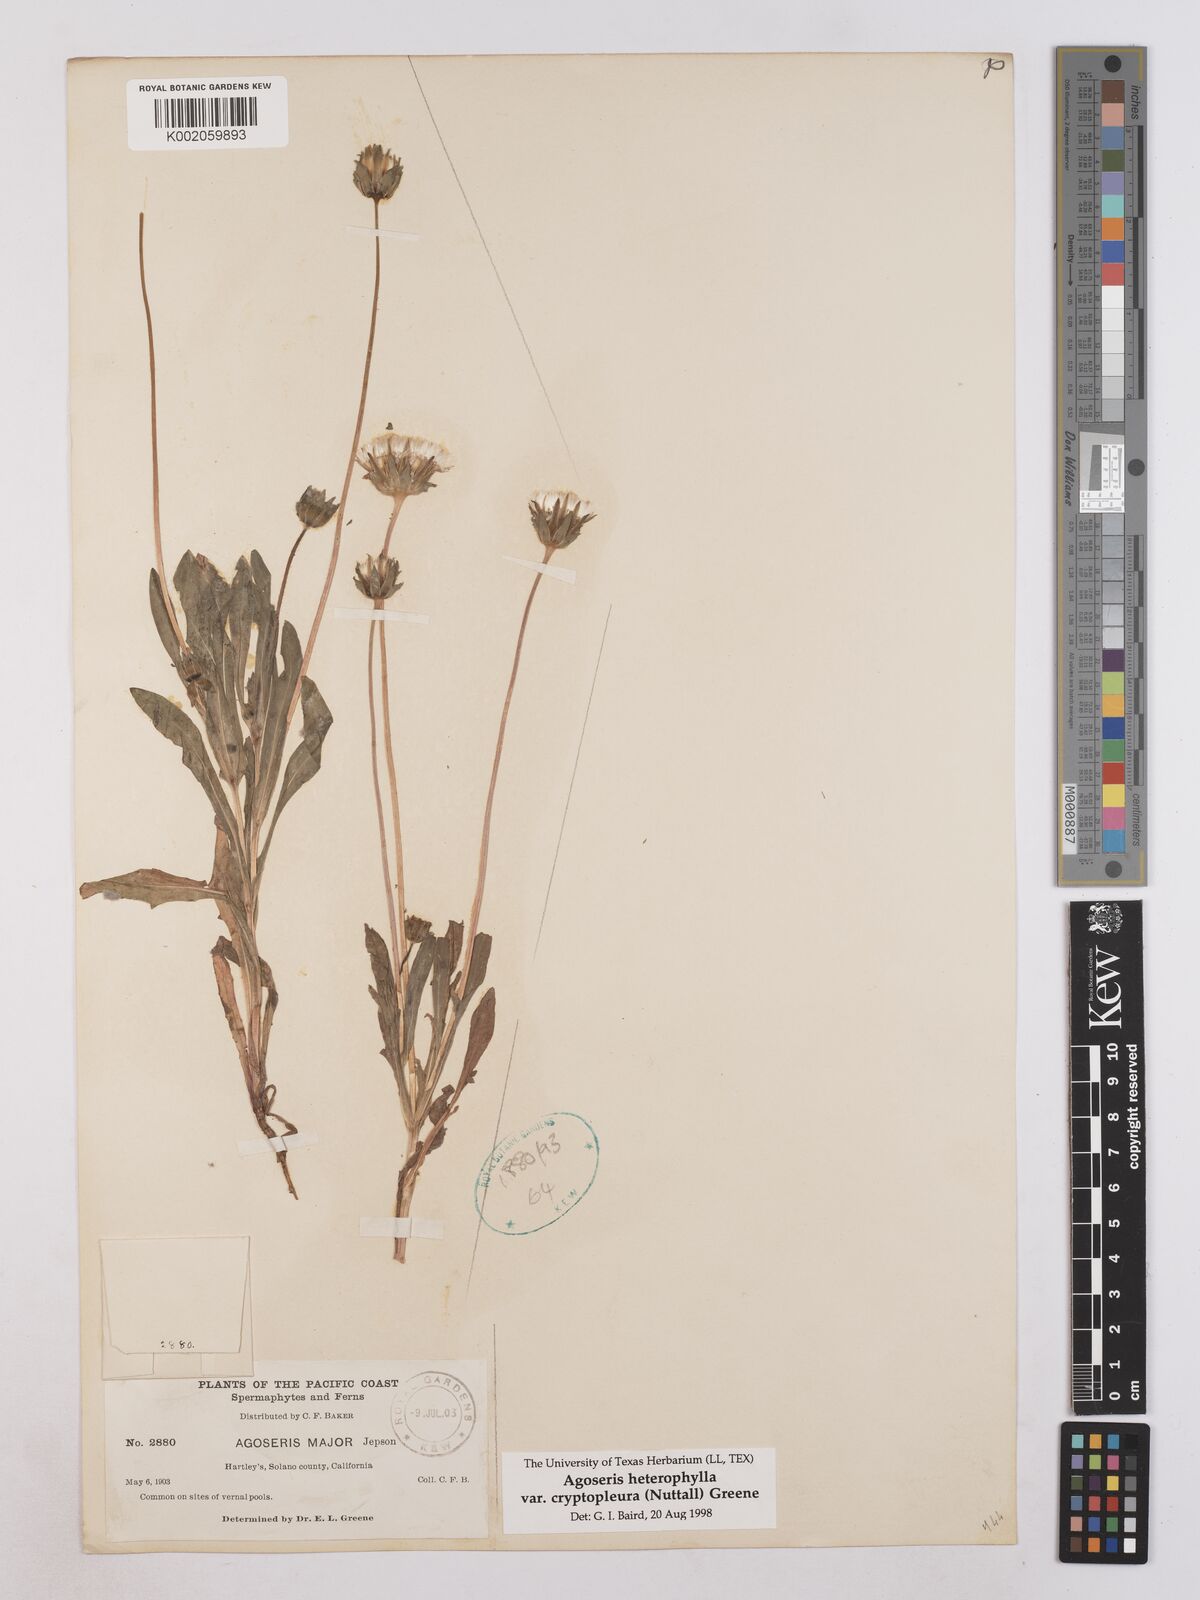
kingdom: Plantae
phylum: Tracheophyta
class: Magnoliopsida
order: Asterales
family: Asteraceae
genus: Agoseris
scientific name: Agoseris heterophylla
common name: Annual agoseris
